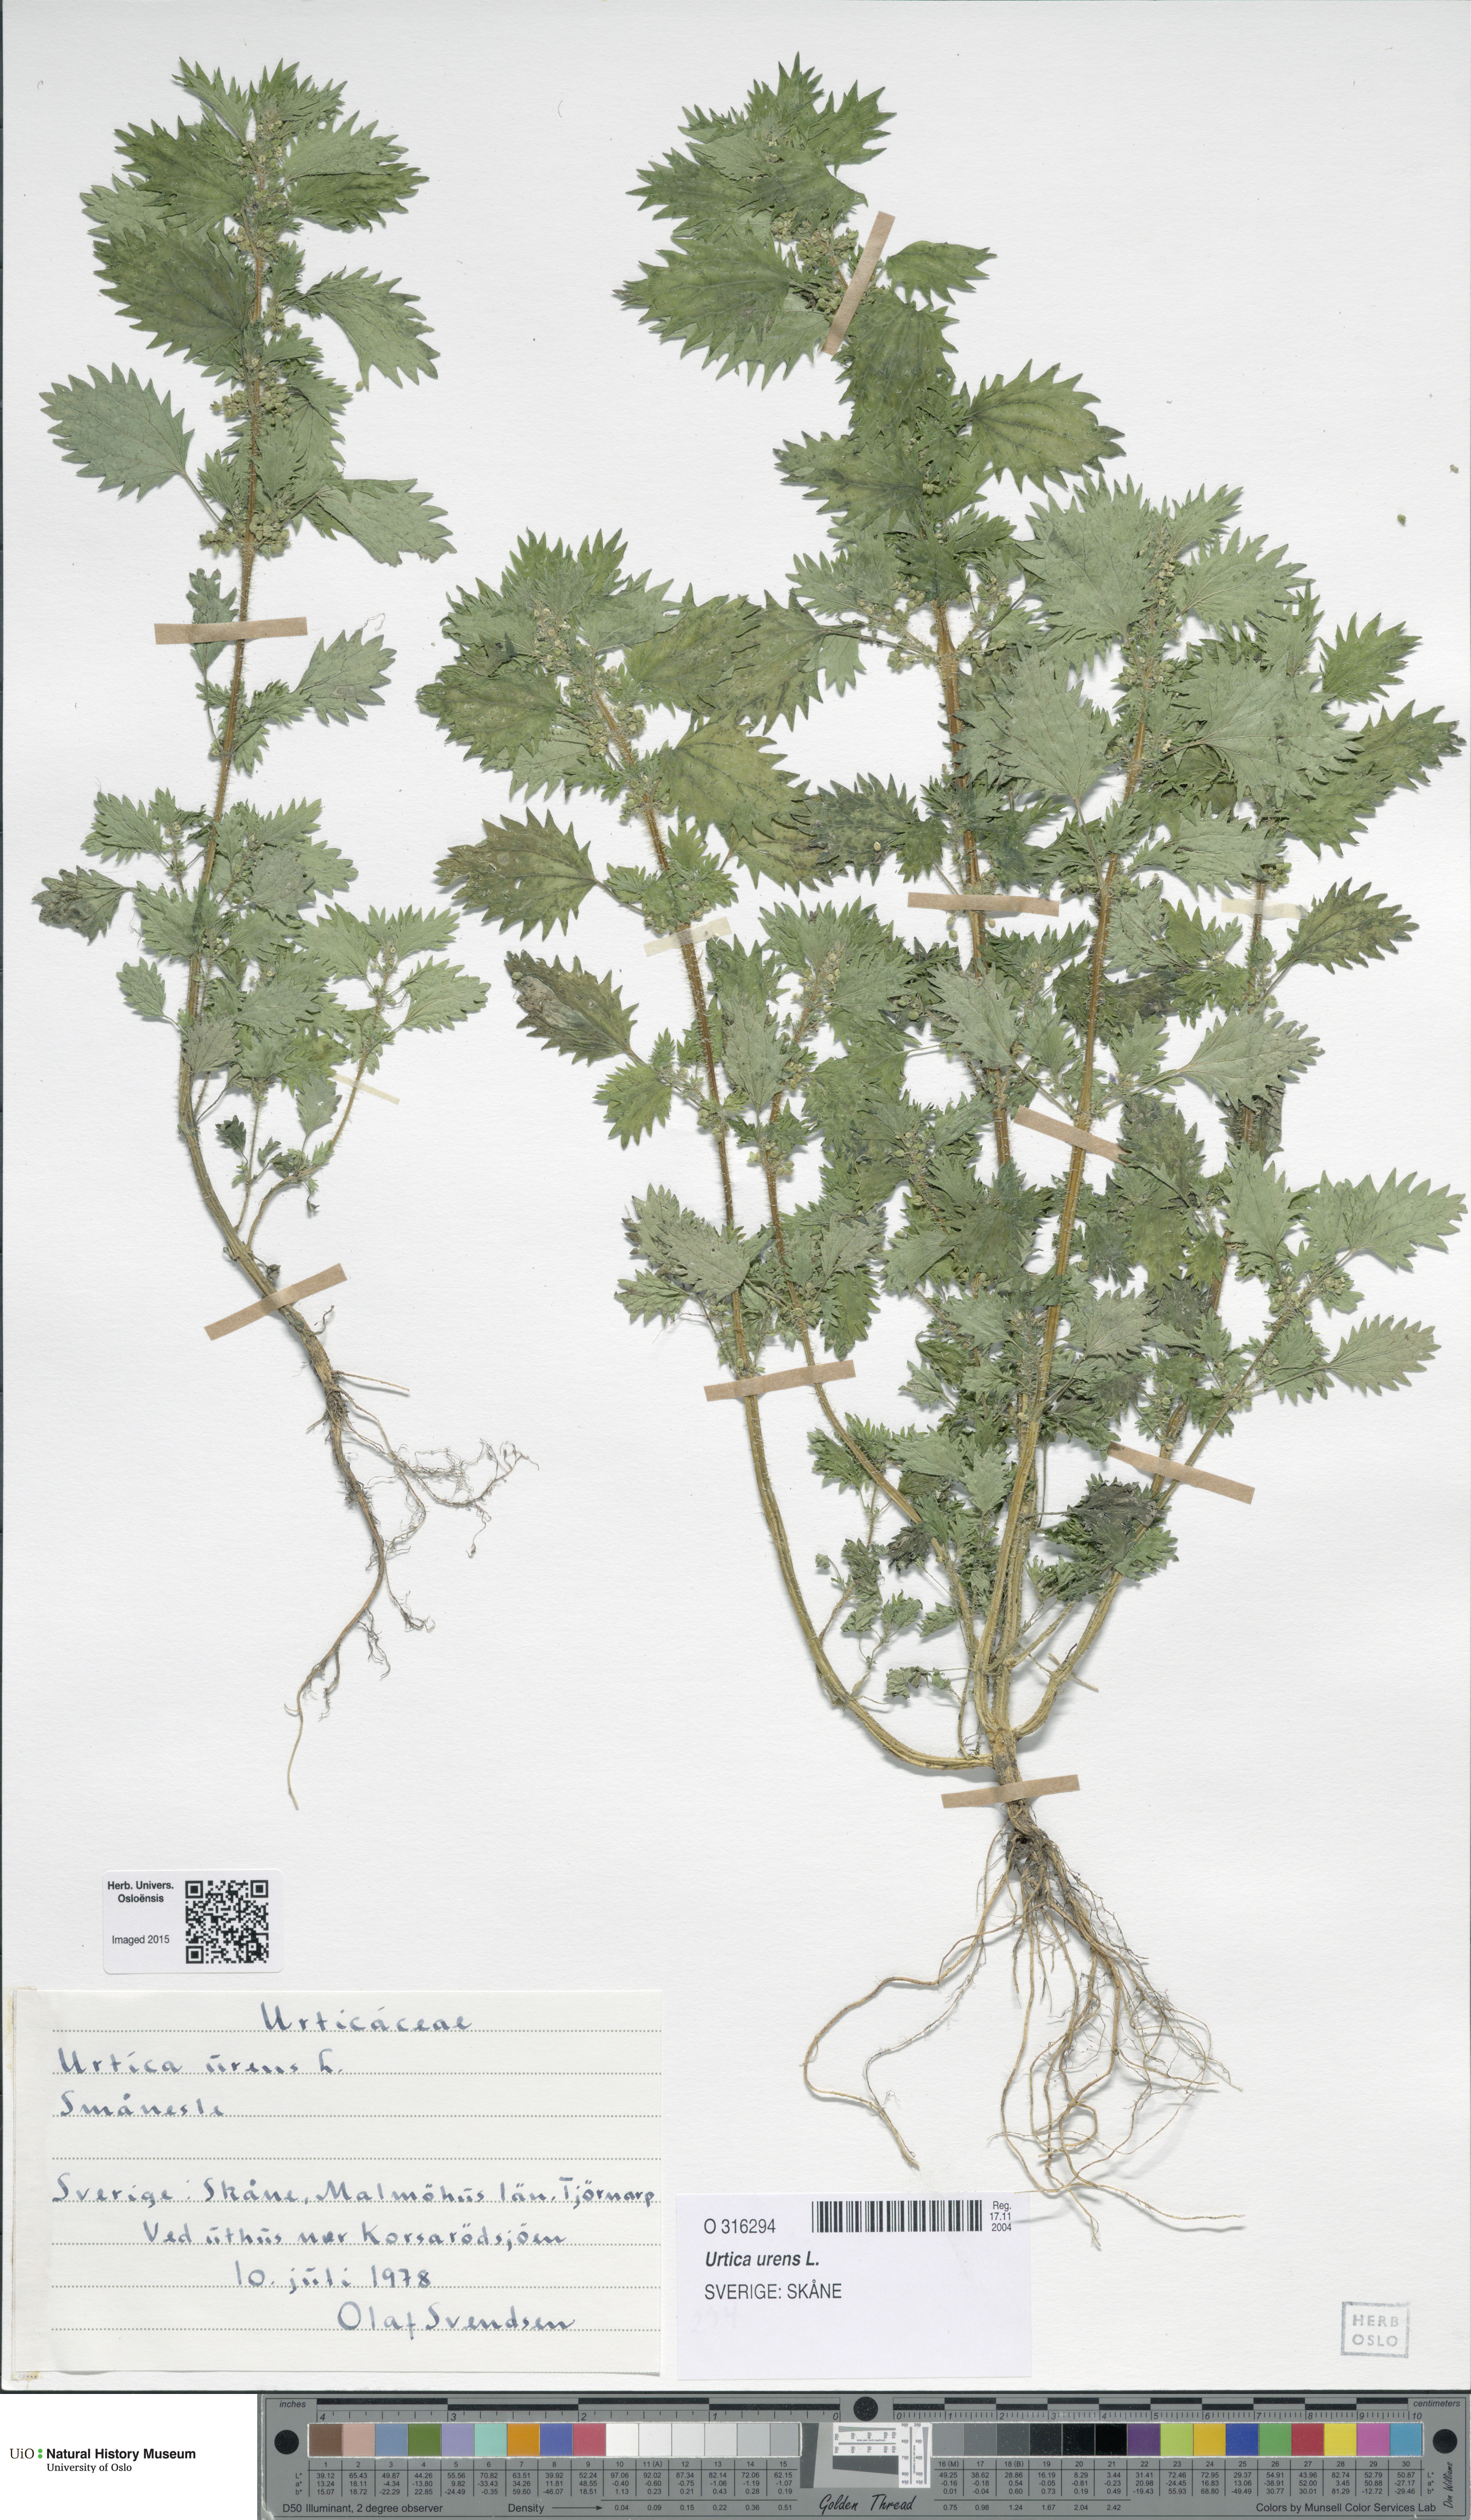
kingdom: Plantae
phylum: Tracheophyta
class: Magnoliopsida
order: Rosales
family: Urticaceae
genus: Urtica
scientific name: Urtica urens
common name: Dwarf nettle
